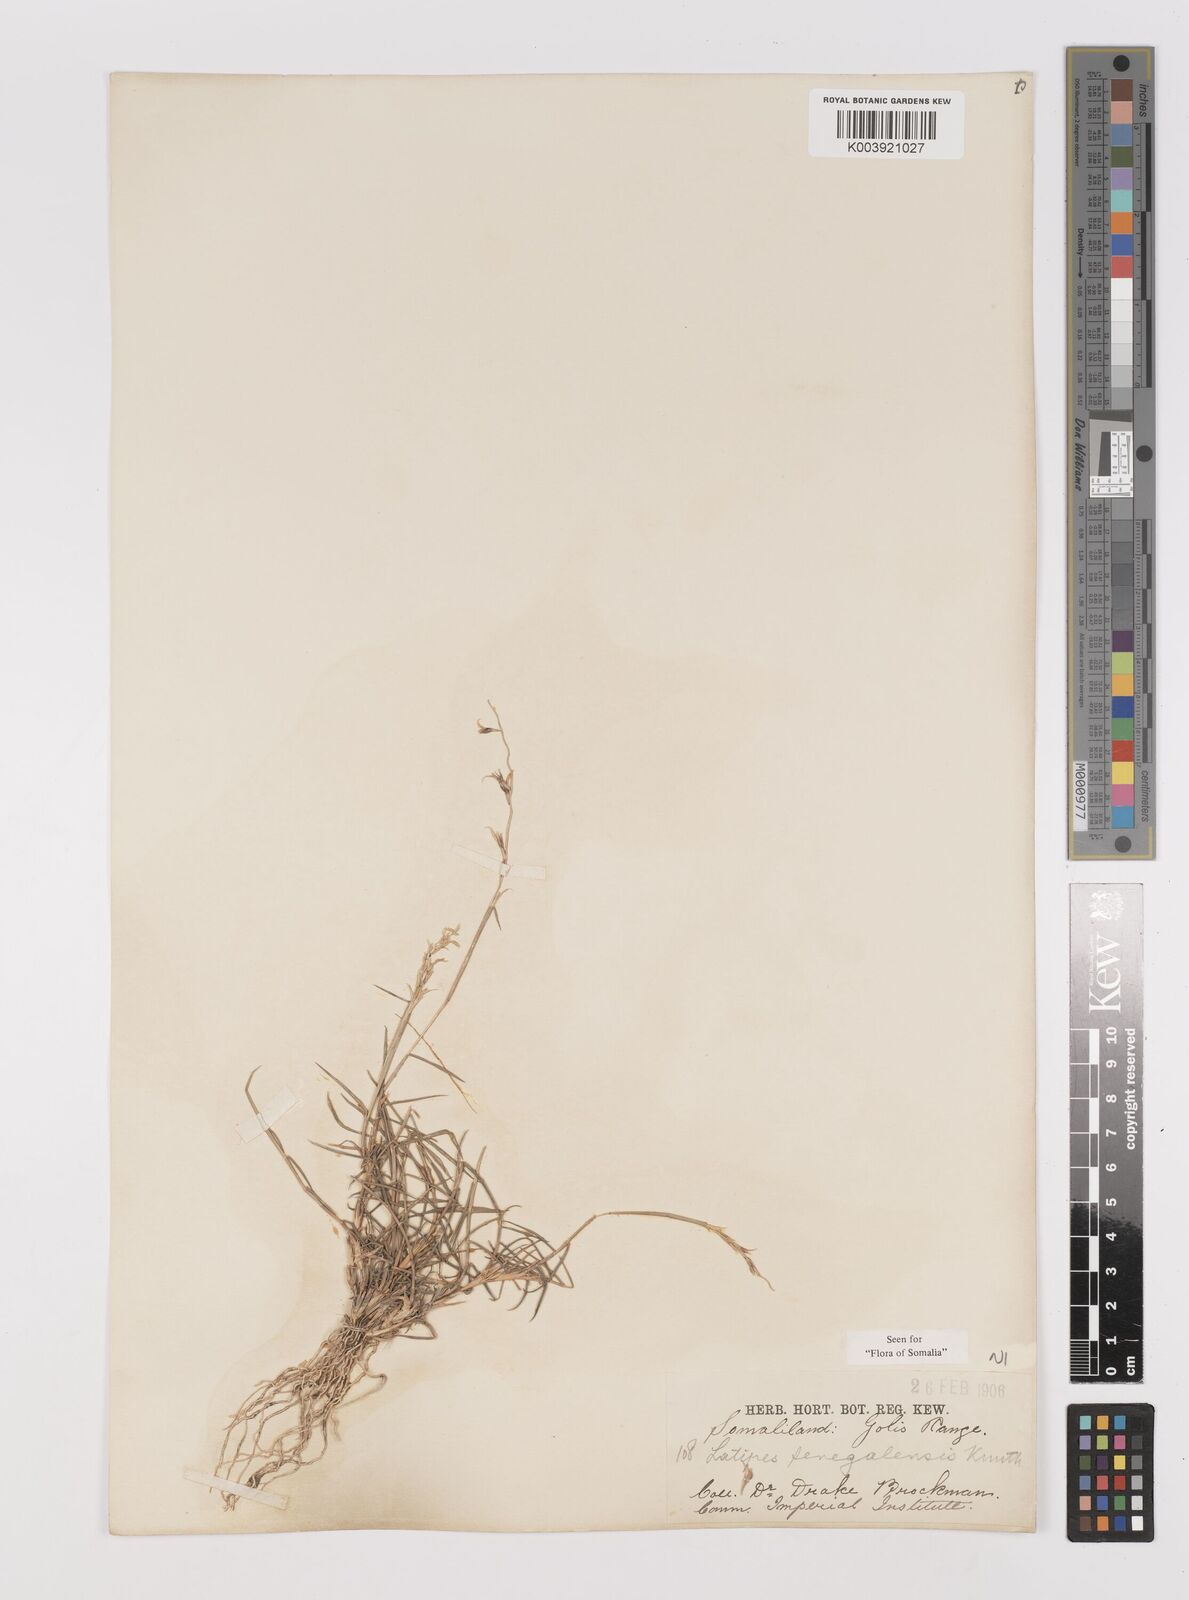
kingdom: Plantae
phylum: Tracheophyta
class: Liliopsida
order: Poales
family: Poaceae
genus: Leptothrium
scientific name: Leptothrium senegalense
